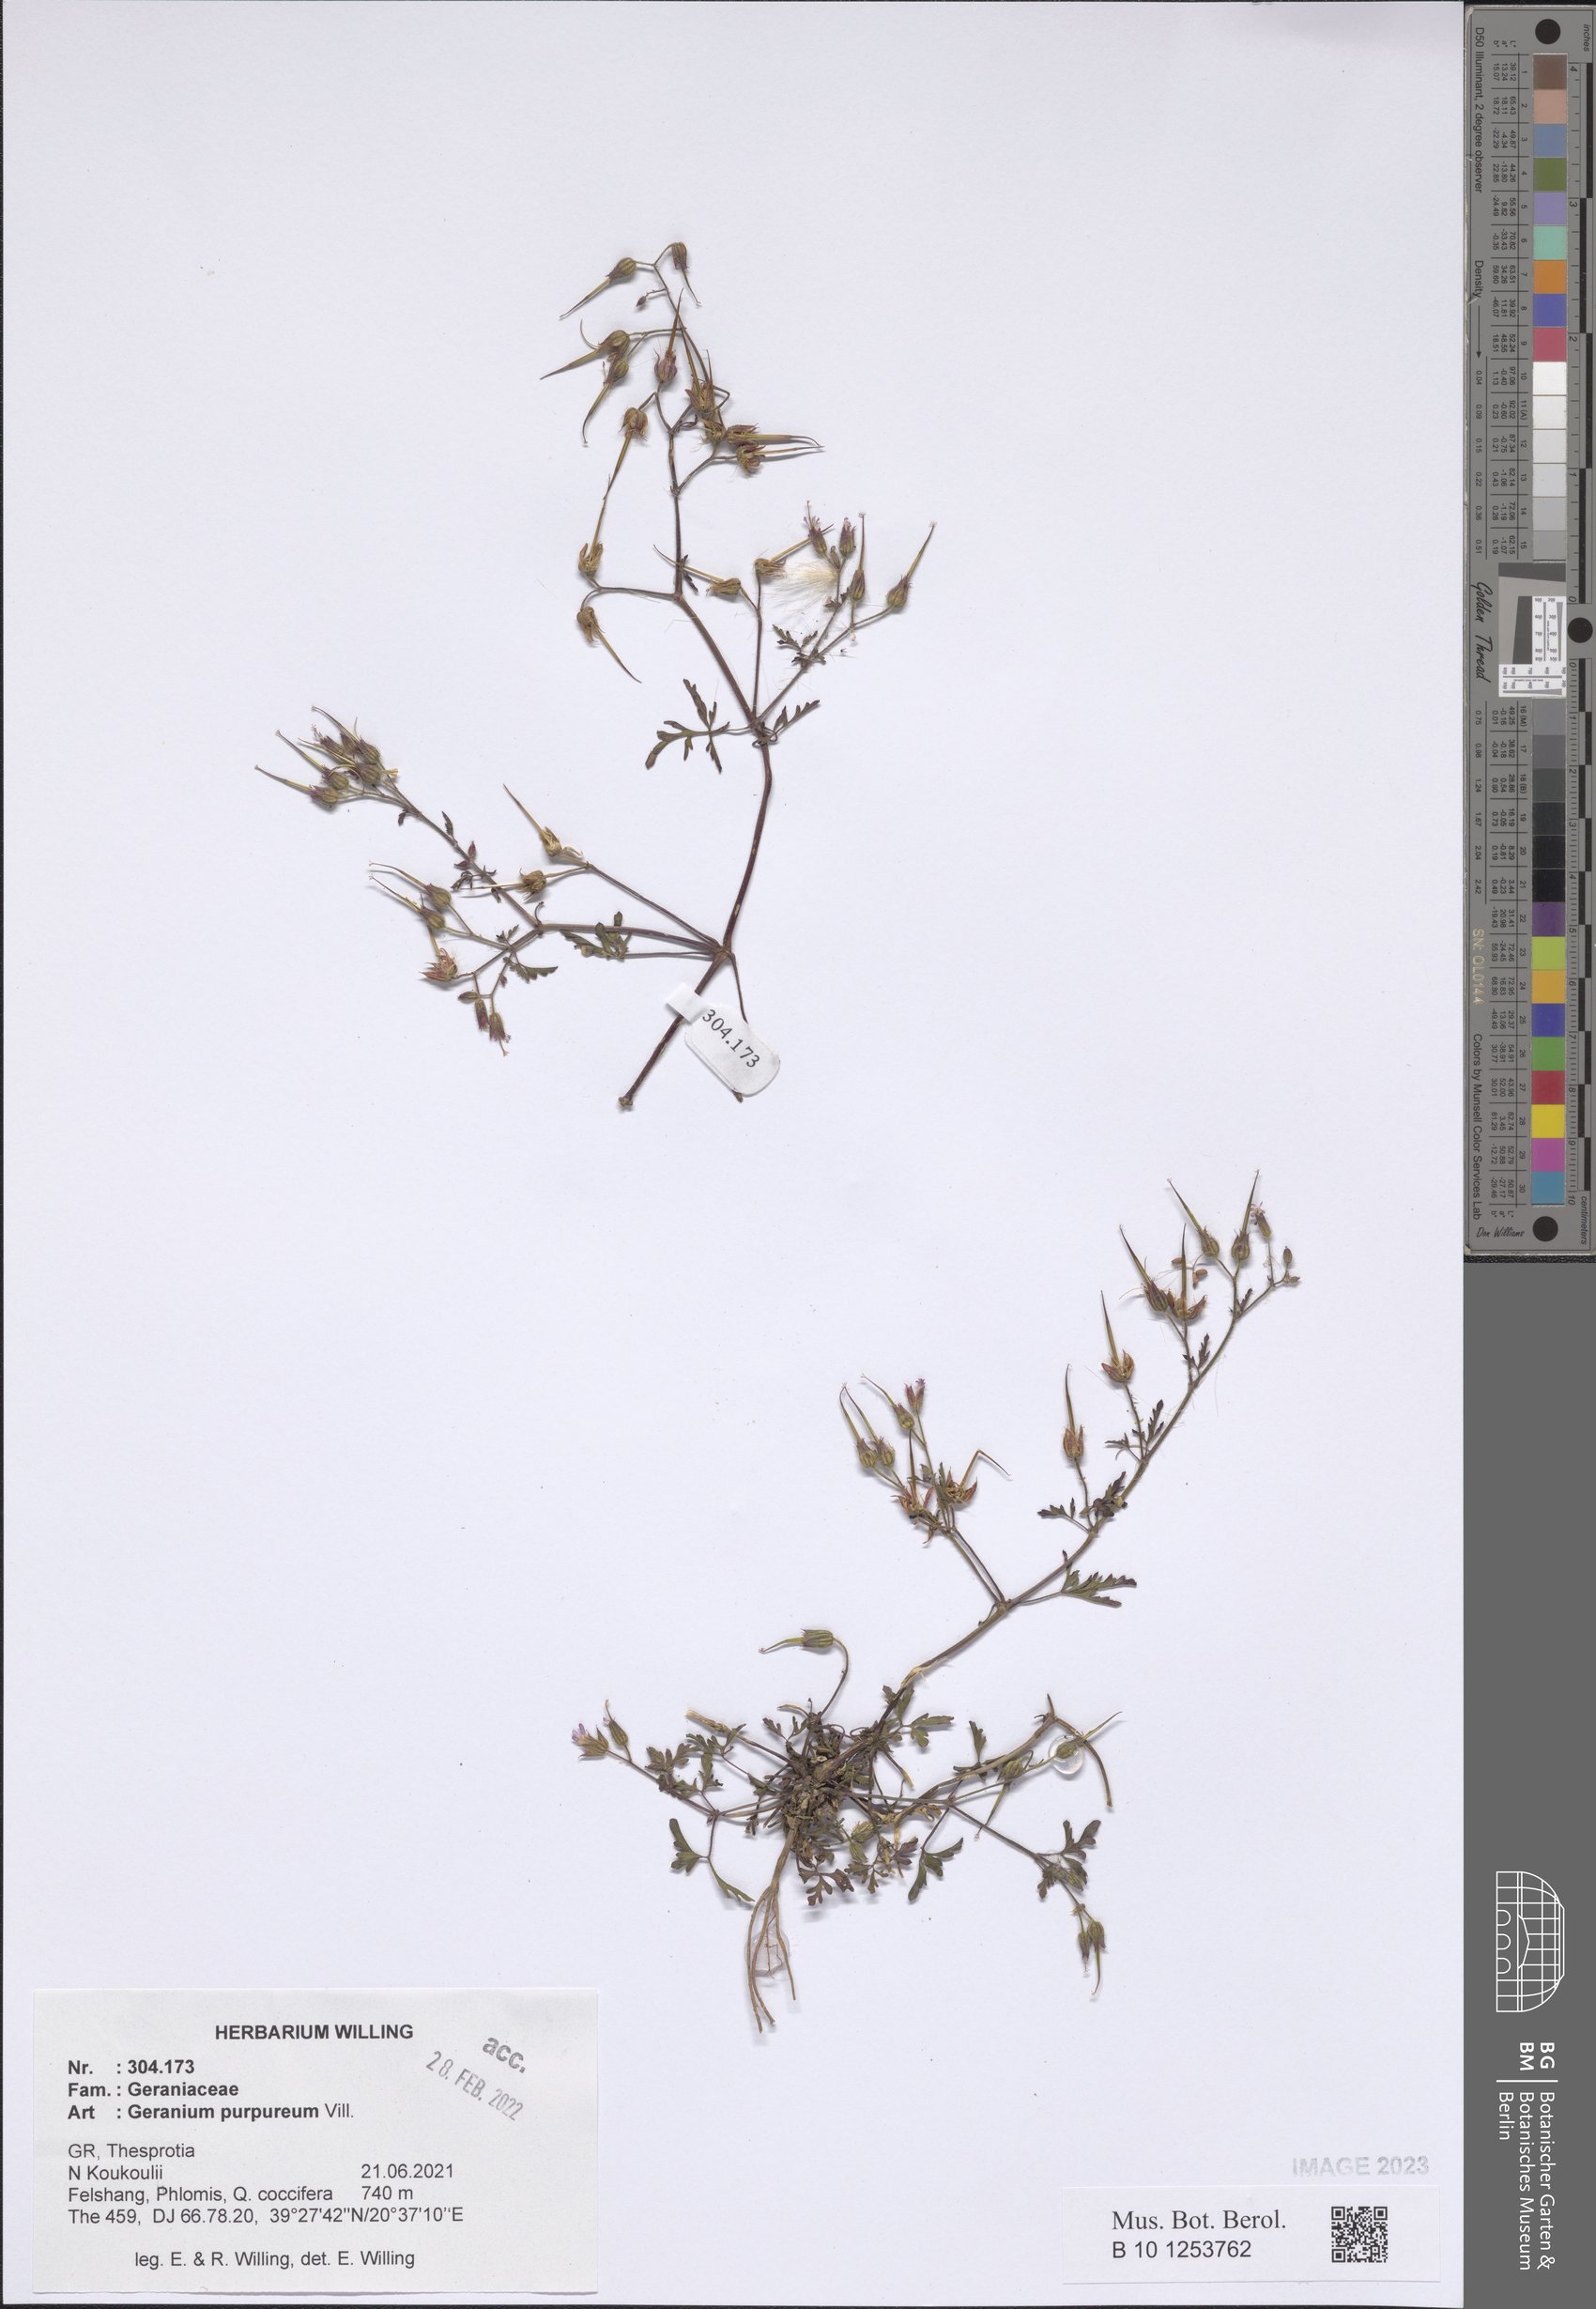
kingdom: Plantae
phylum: Tracheophyta
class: Magnoliopsida
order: Geraniales
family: Geraniaceae
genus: Geranium
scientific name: Geranium purpureum
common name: Little-robin
